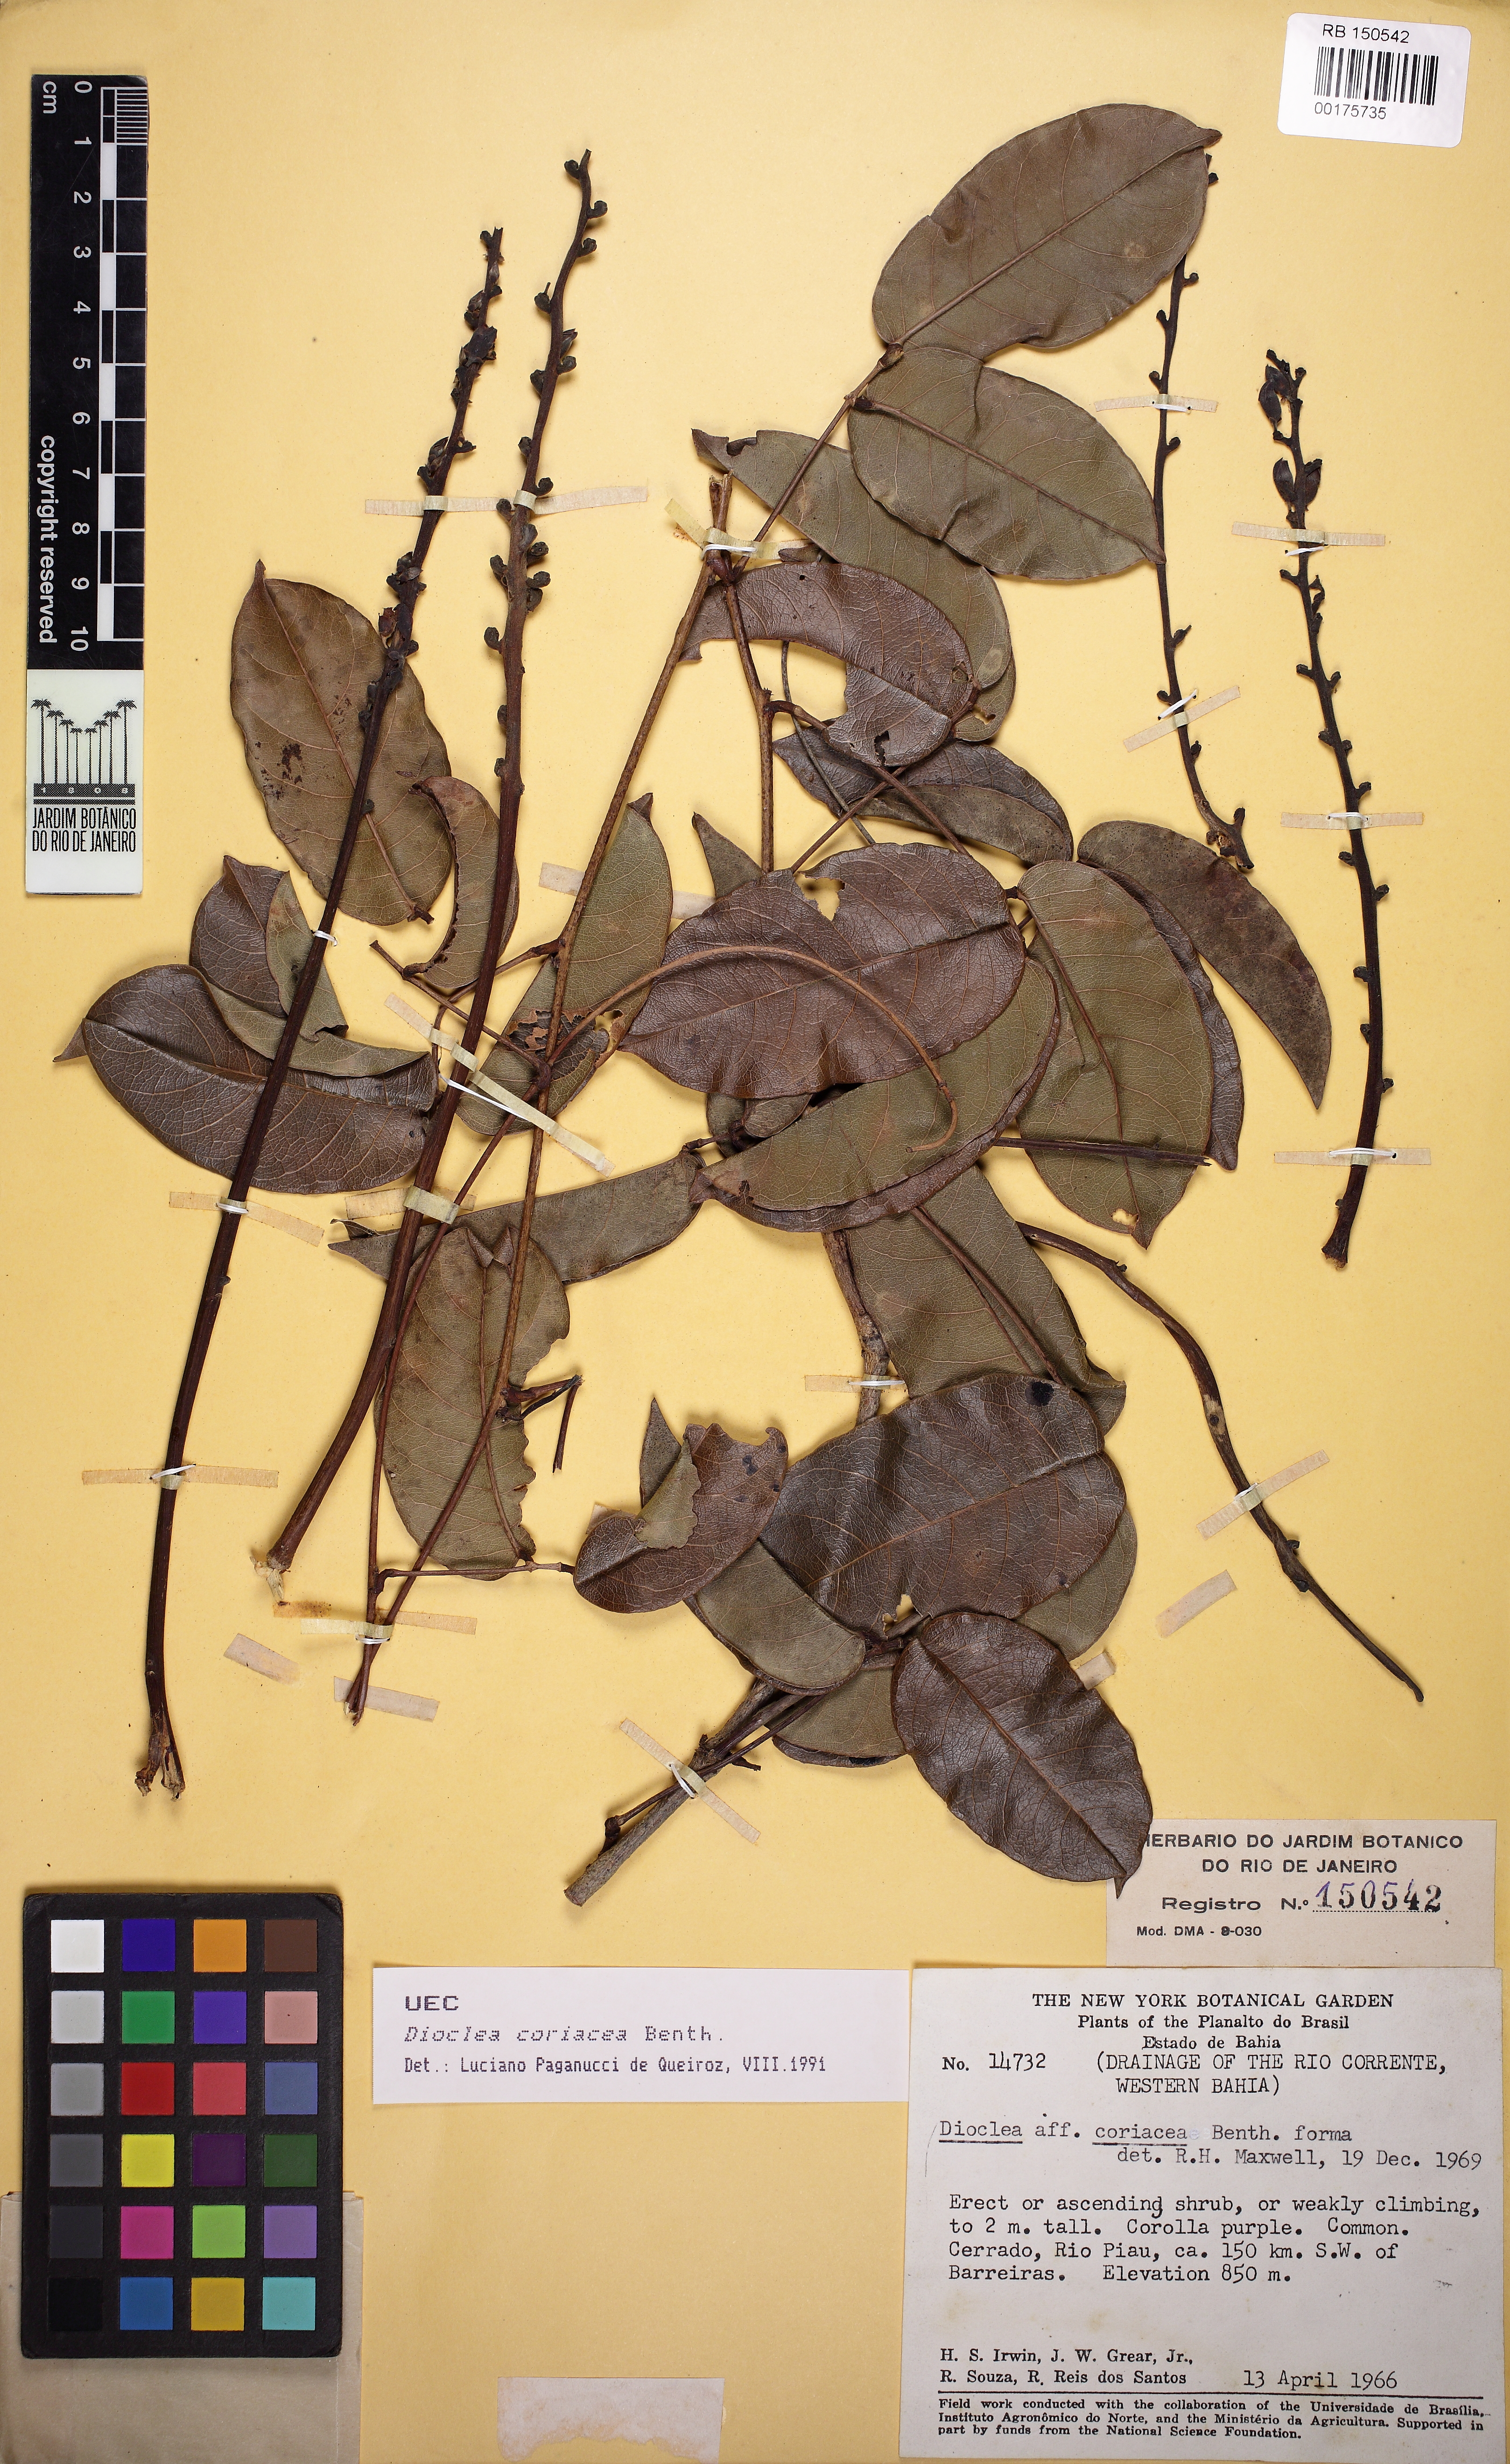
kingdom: Plantae
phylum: Tracheophyta
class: Magnoliopsida
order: Fabales
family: Fabaceae
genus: Macropsychanthus
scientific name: Macropsychanthus coriaceus
